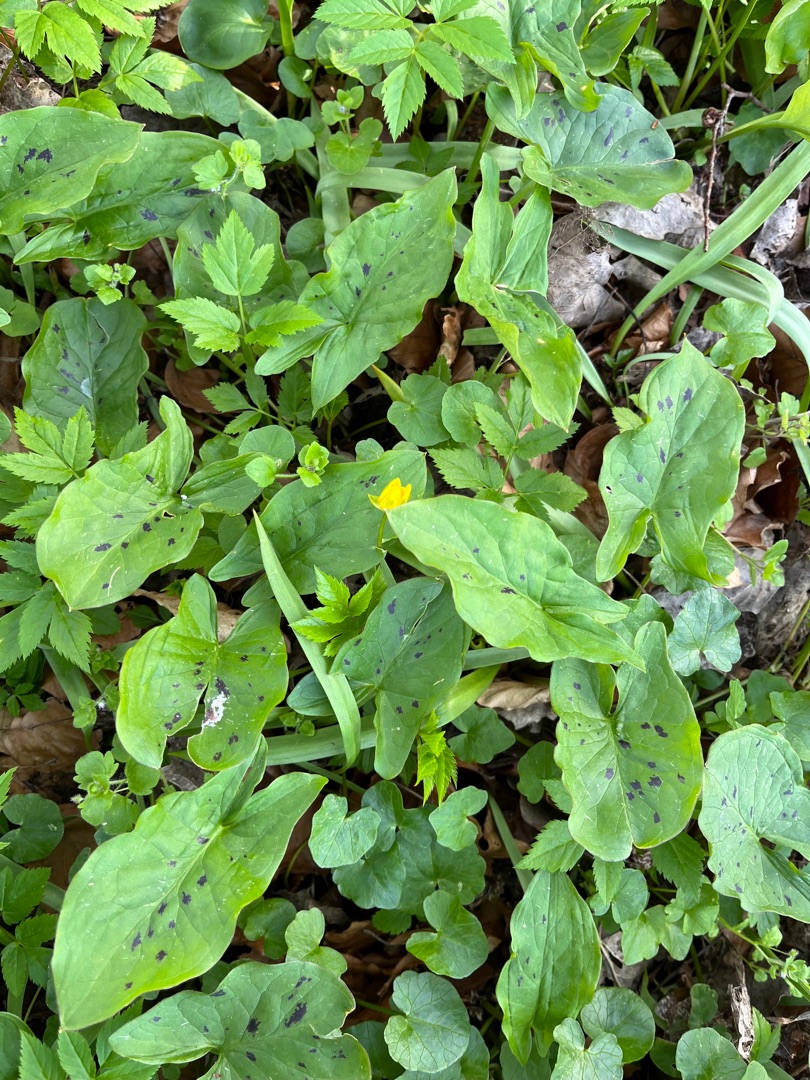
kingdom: Plantae
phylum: Tracheophyta
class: Liliopsida
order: Alismatales
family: Araceae
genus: Arum
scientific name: Arum maculatum
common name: Plettet arum
